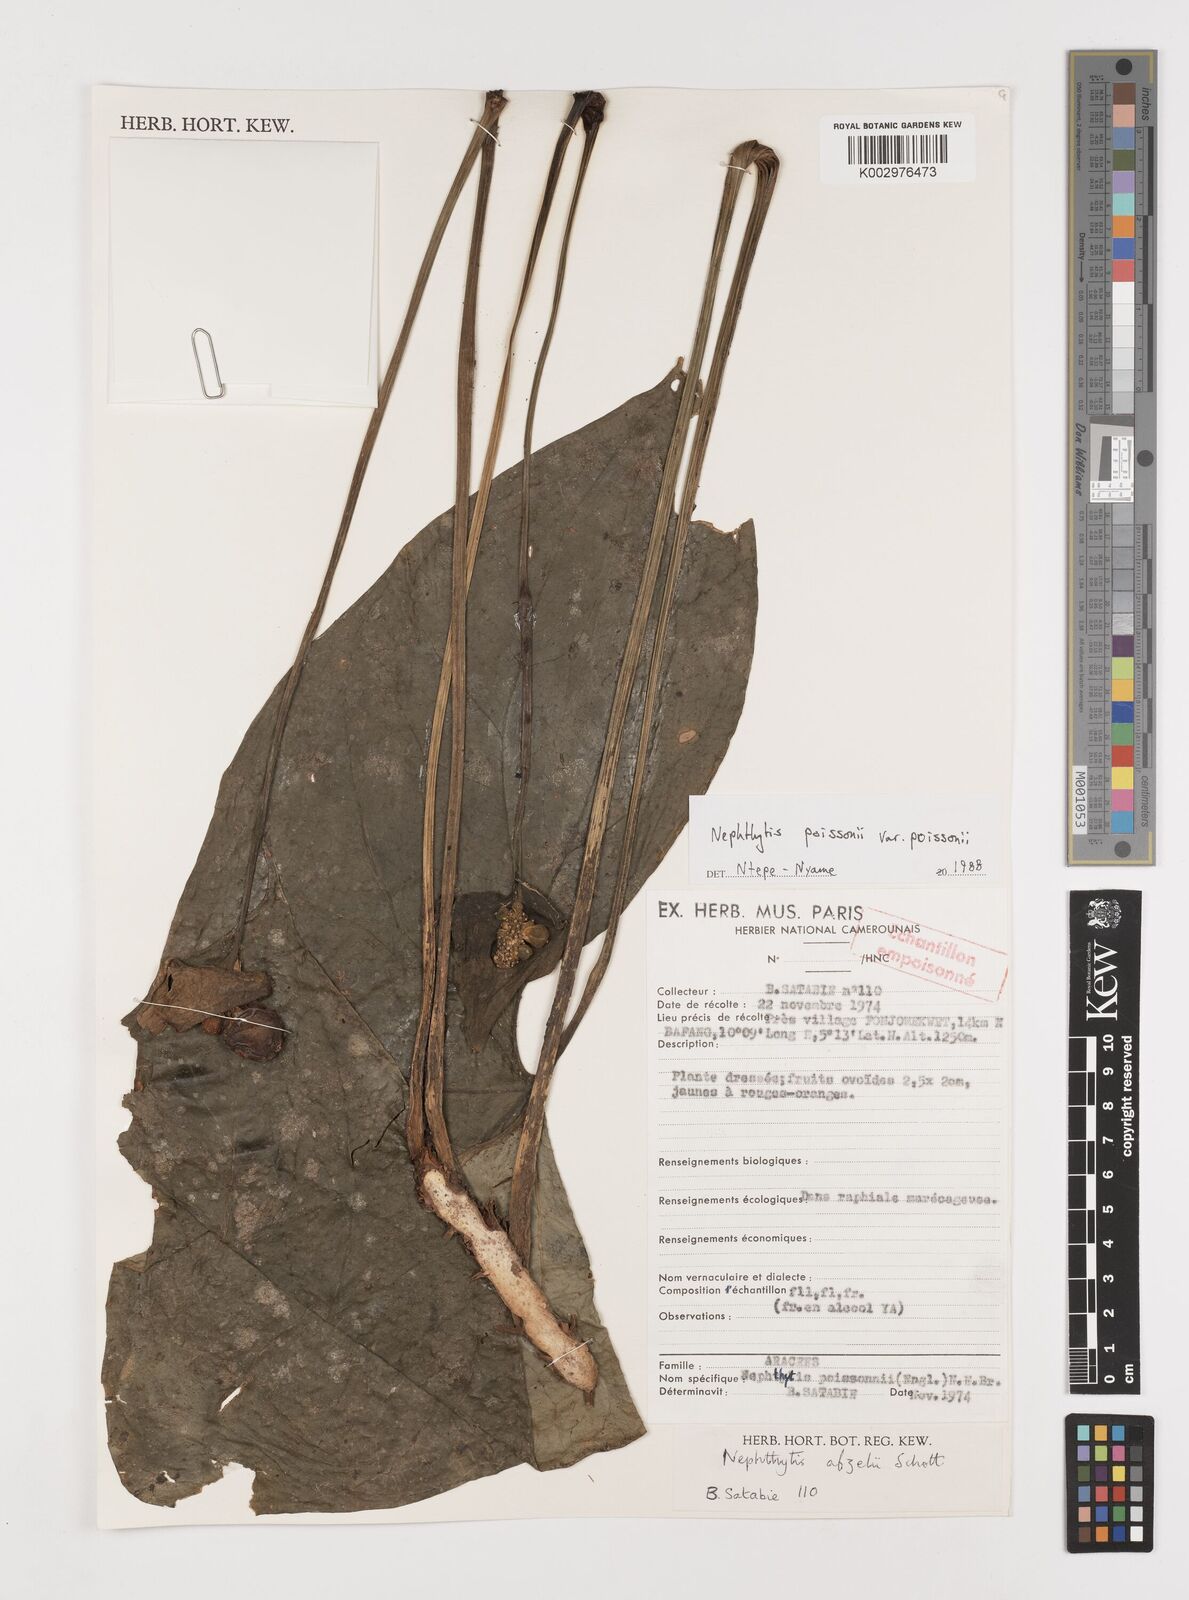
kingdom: Plantae
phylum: Tracheophyta
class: Liliopsida
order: Alismatales
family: Araceae
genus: Nephthytis
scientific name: Nephthytis poissonii
